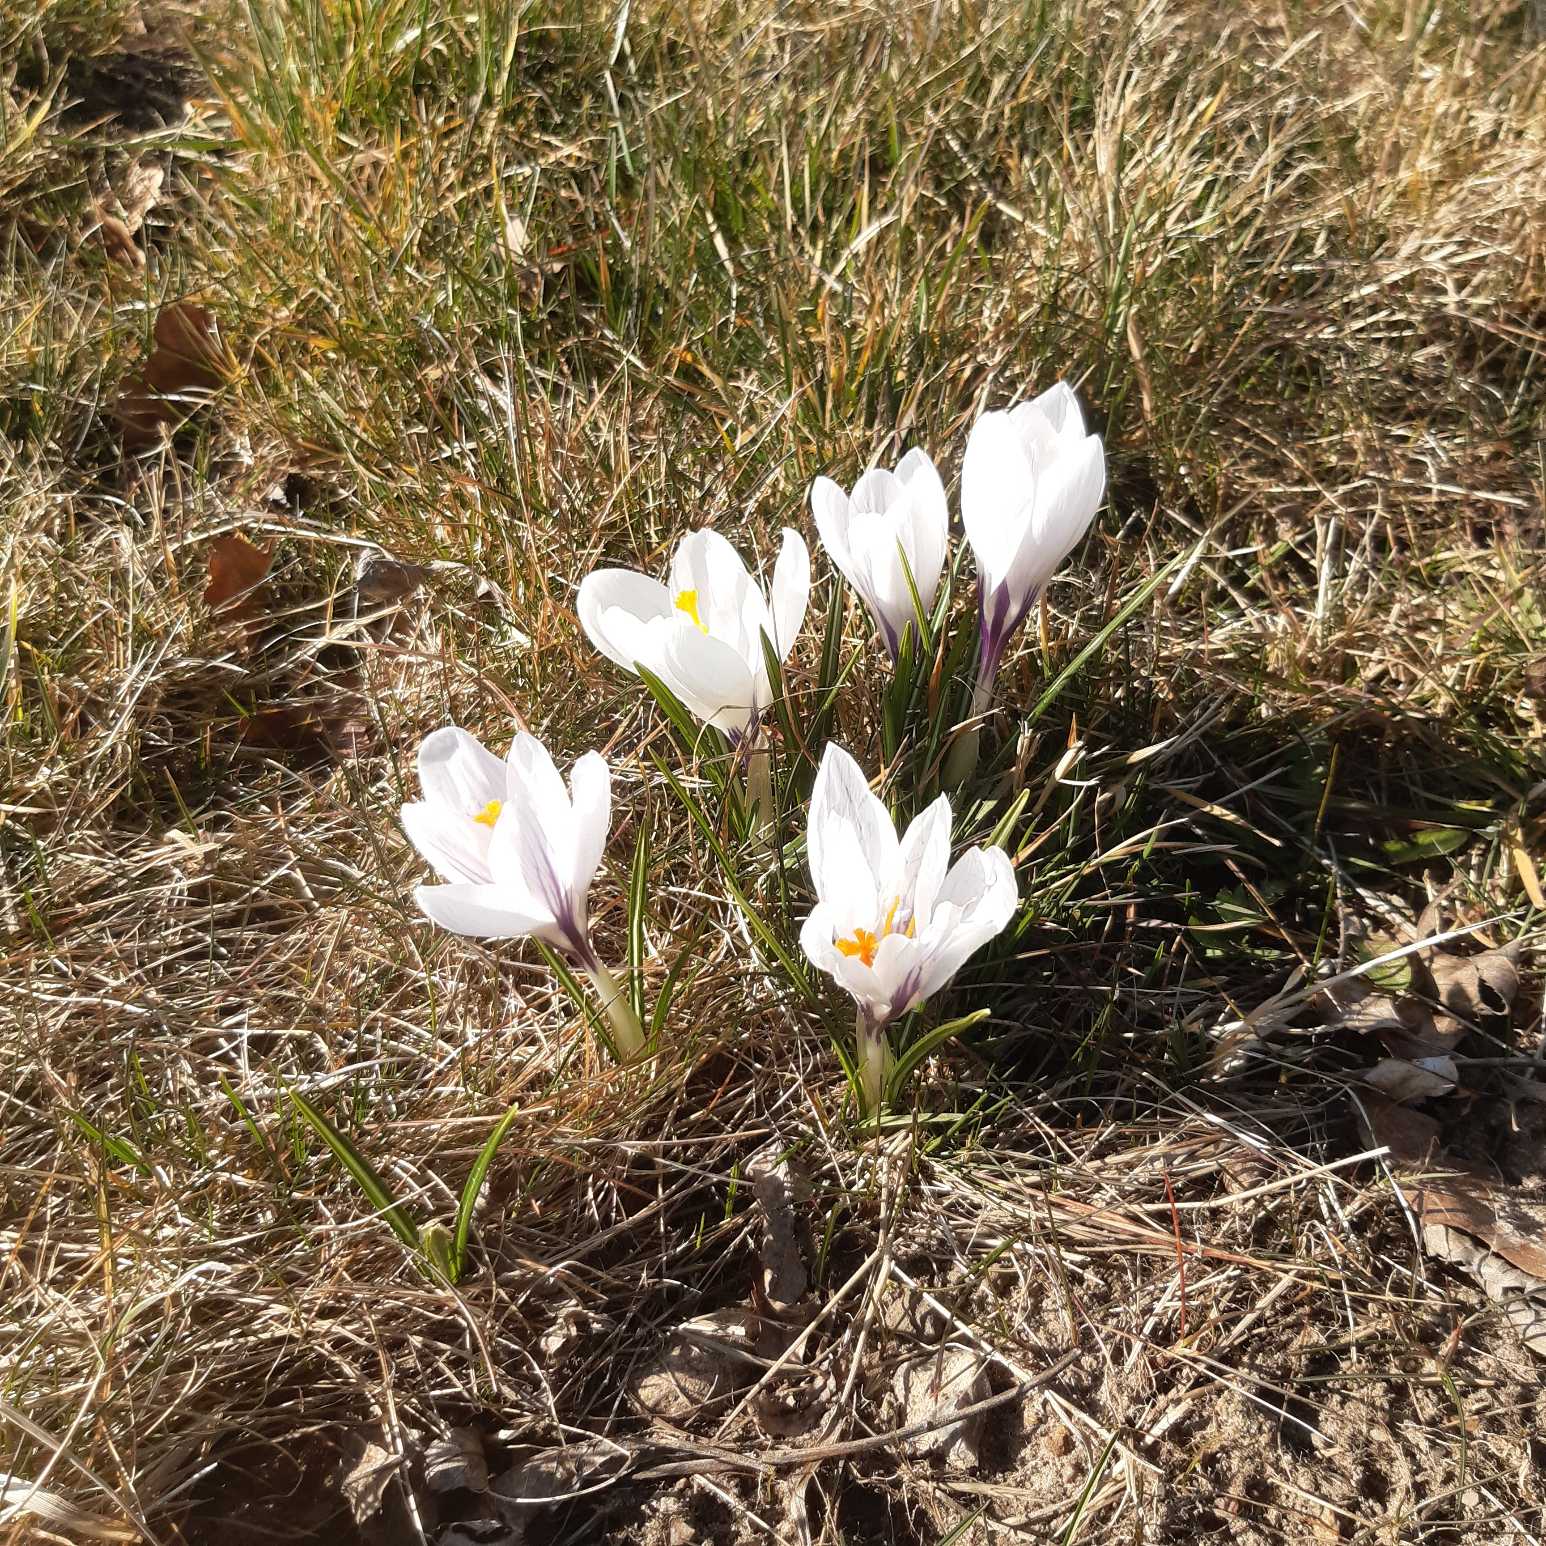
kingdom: Plantae
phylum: Tracheophyta
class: Liliopsida
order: Asparagales
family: Iridaceae
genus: Crocus
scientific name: Crocus vernus
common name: Vår-krokus
